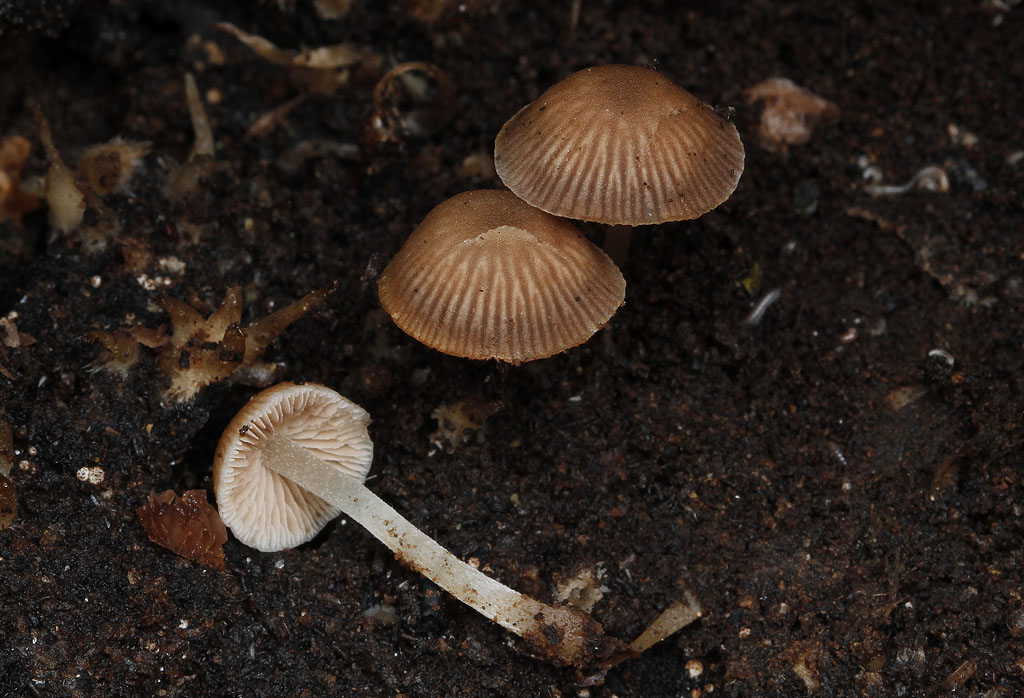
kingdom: Fungi
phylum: Basidiomycota
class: Agaricomycetes
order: Agaricales
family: Psathyrellaceae
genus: Psathyrella
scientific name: Psathyrella pygmaea
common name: dværg-mørkhat
